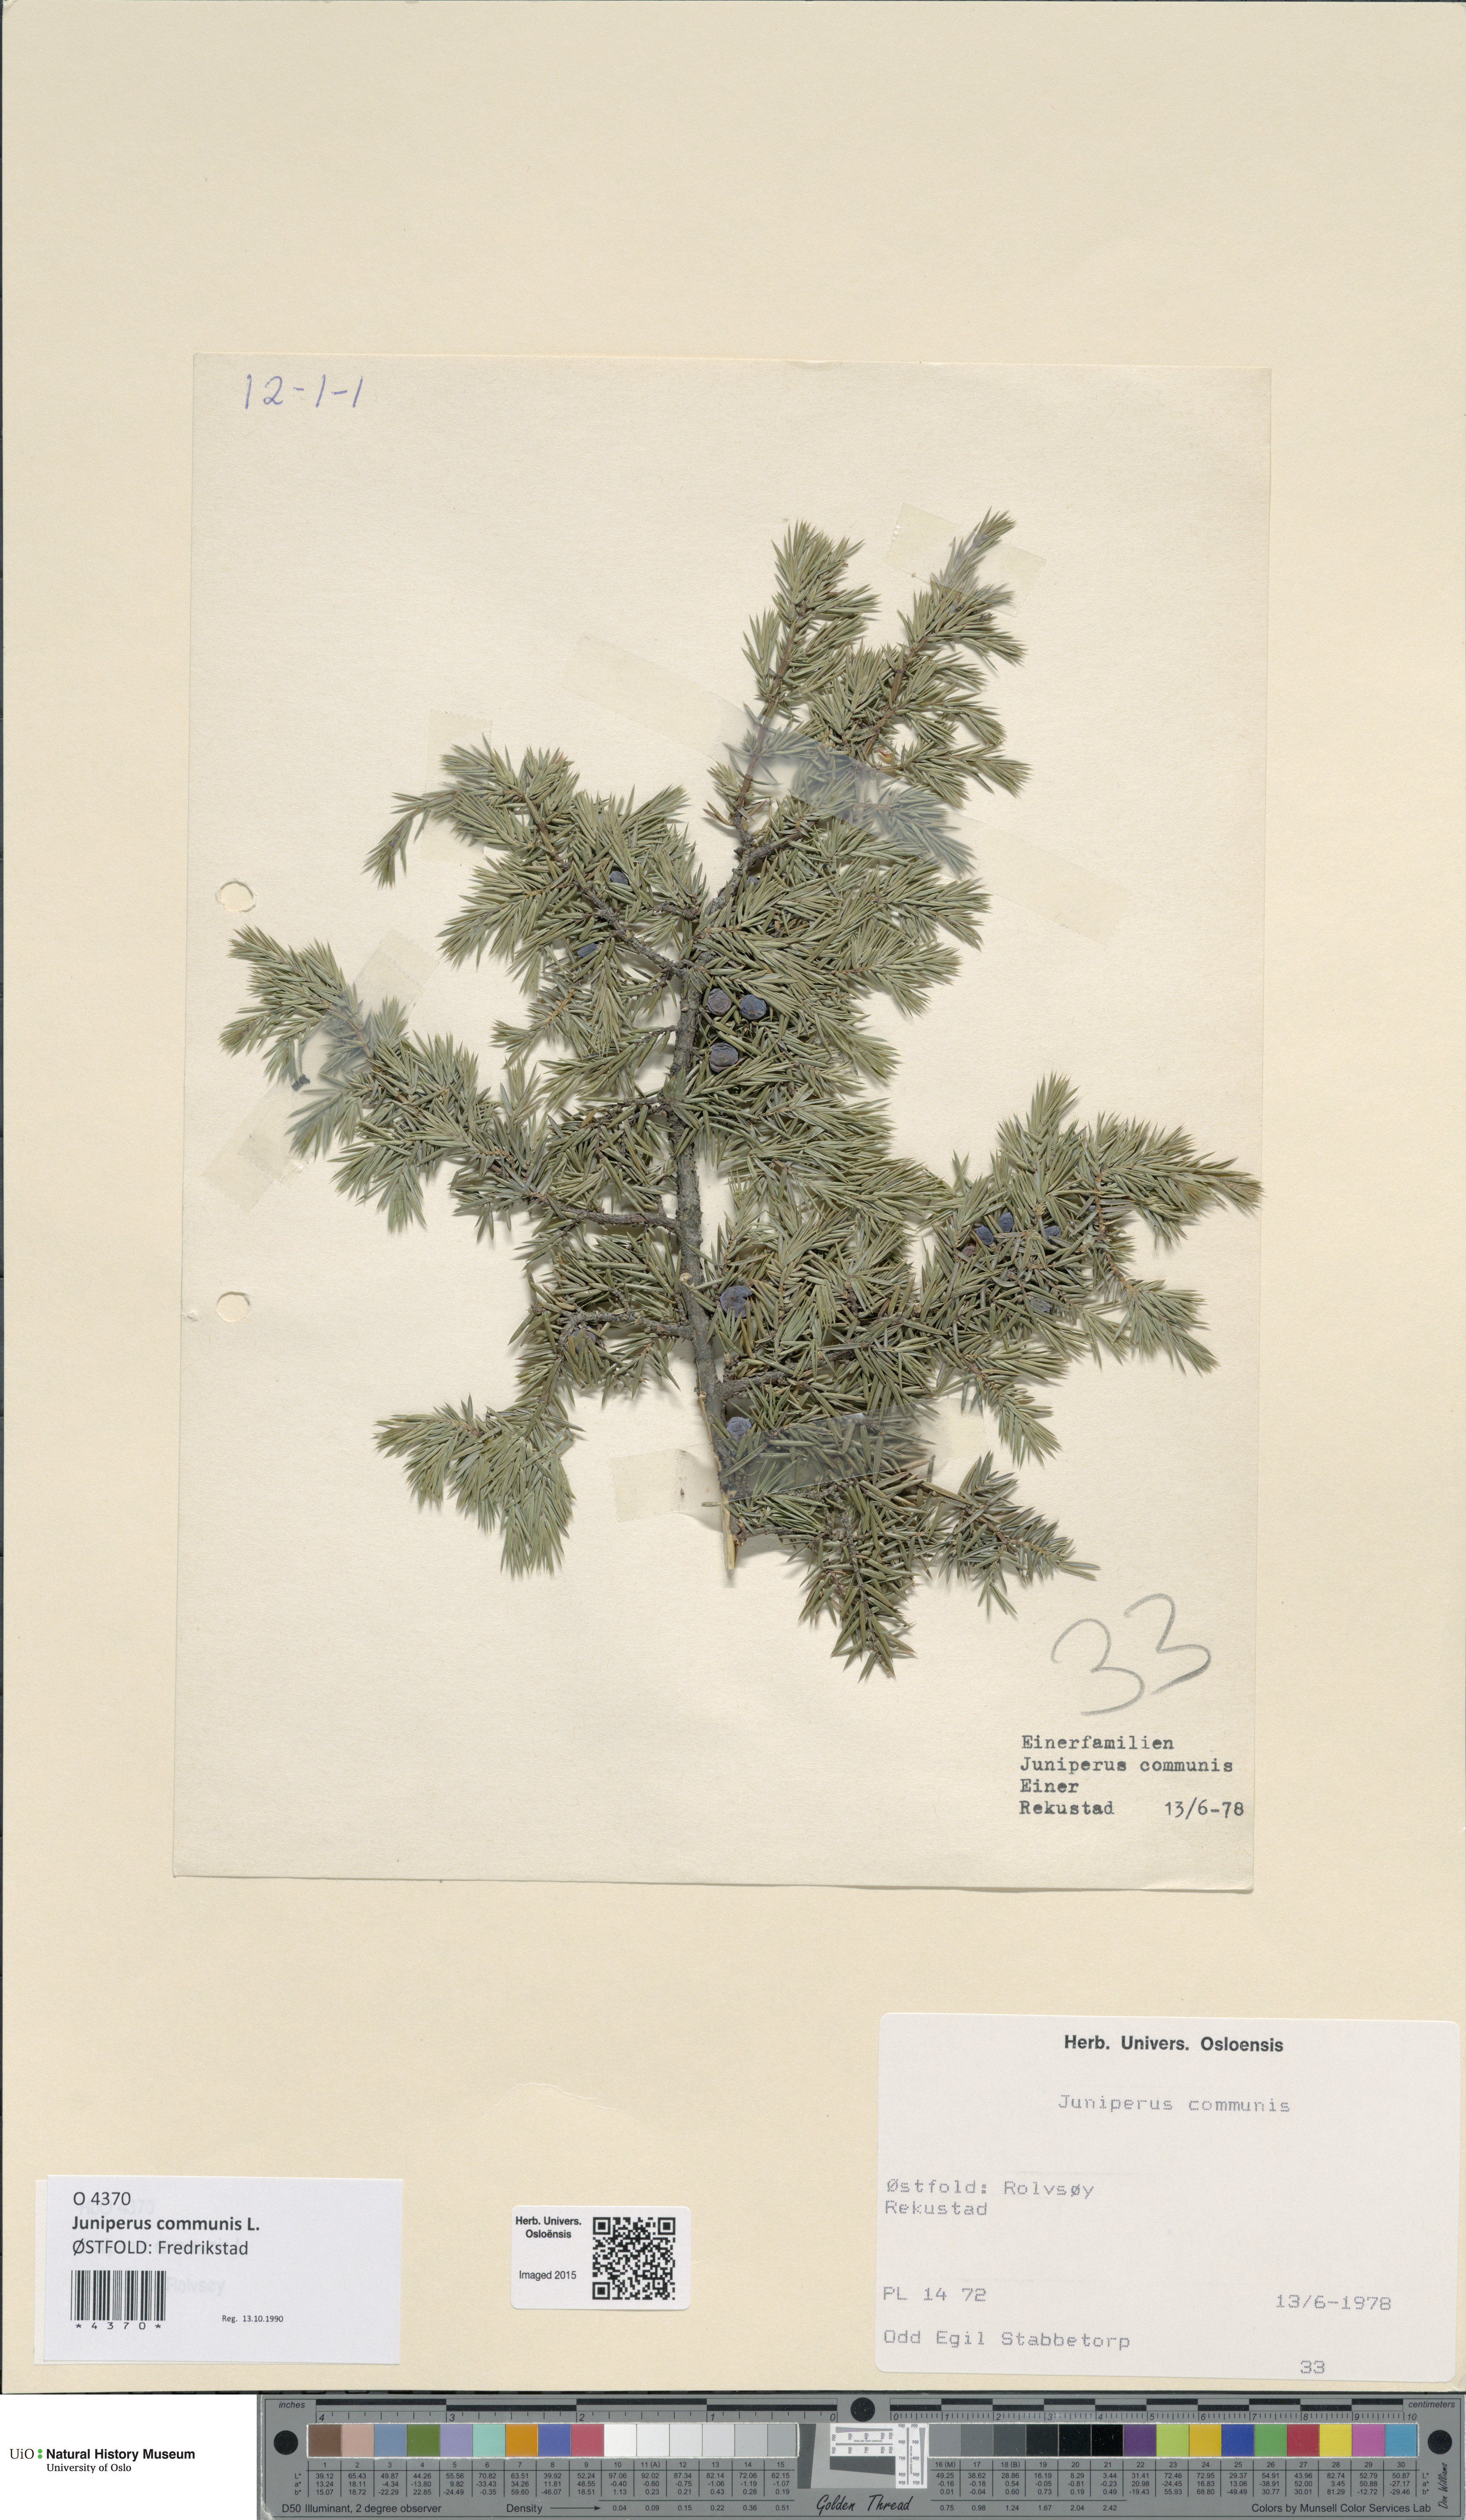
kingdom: Plantae
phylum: Tracheophyta
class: Pinopsida
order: Pinales
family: Cupressaceae
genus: Juniperus
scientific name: Juniperus communis
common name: Common juniper
